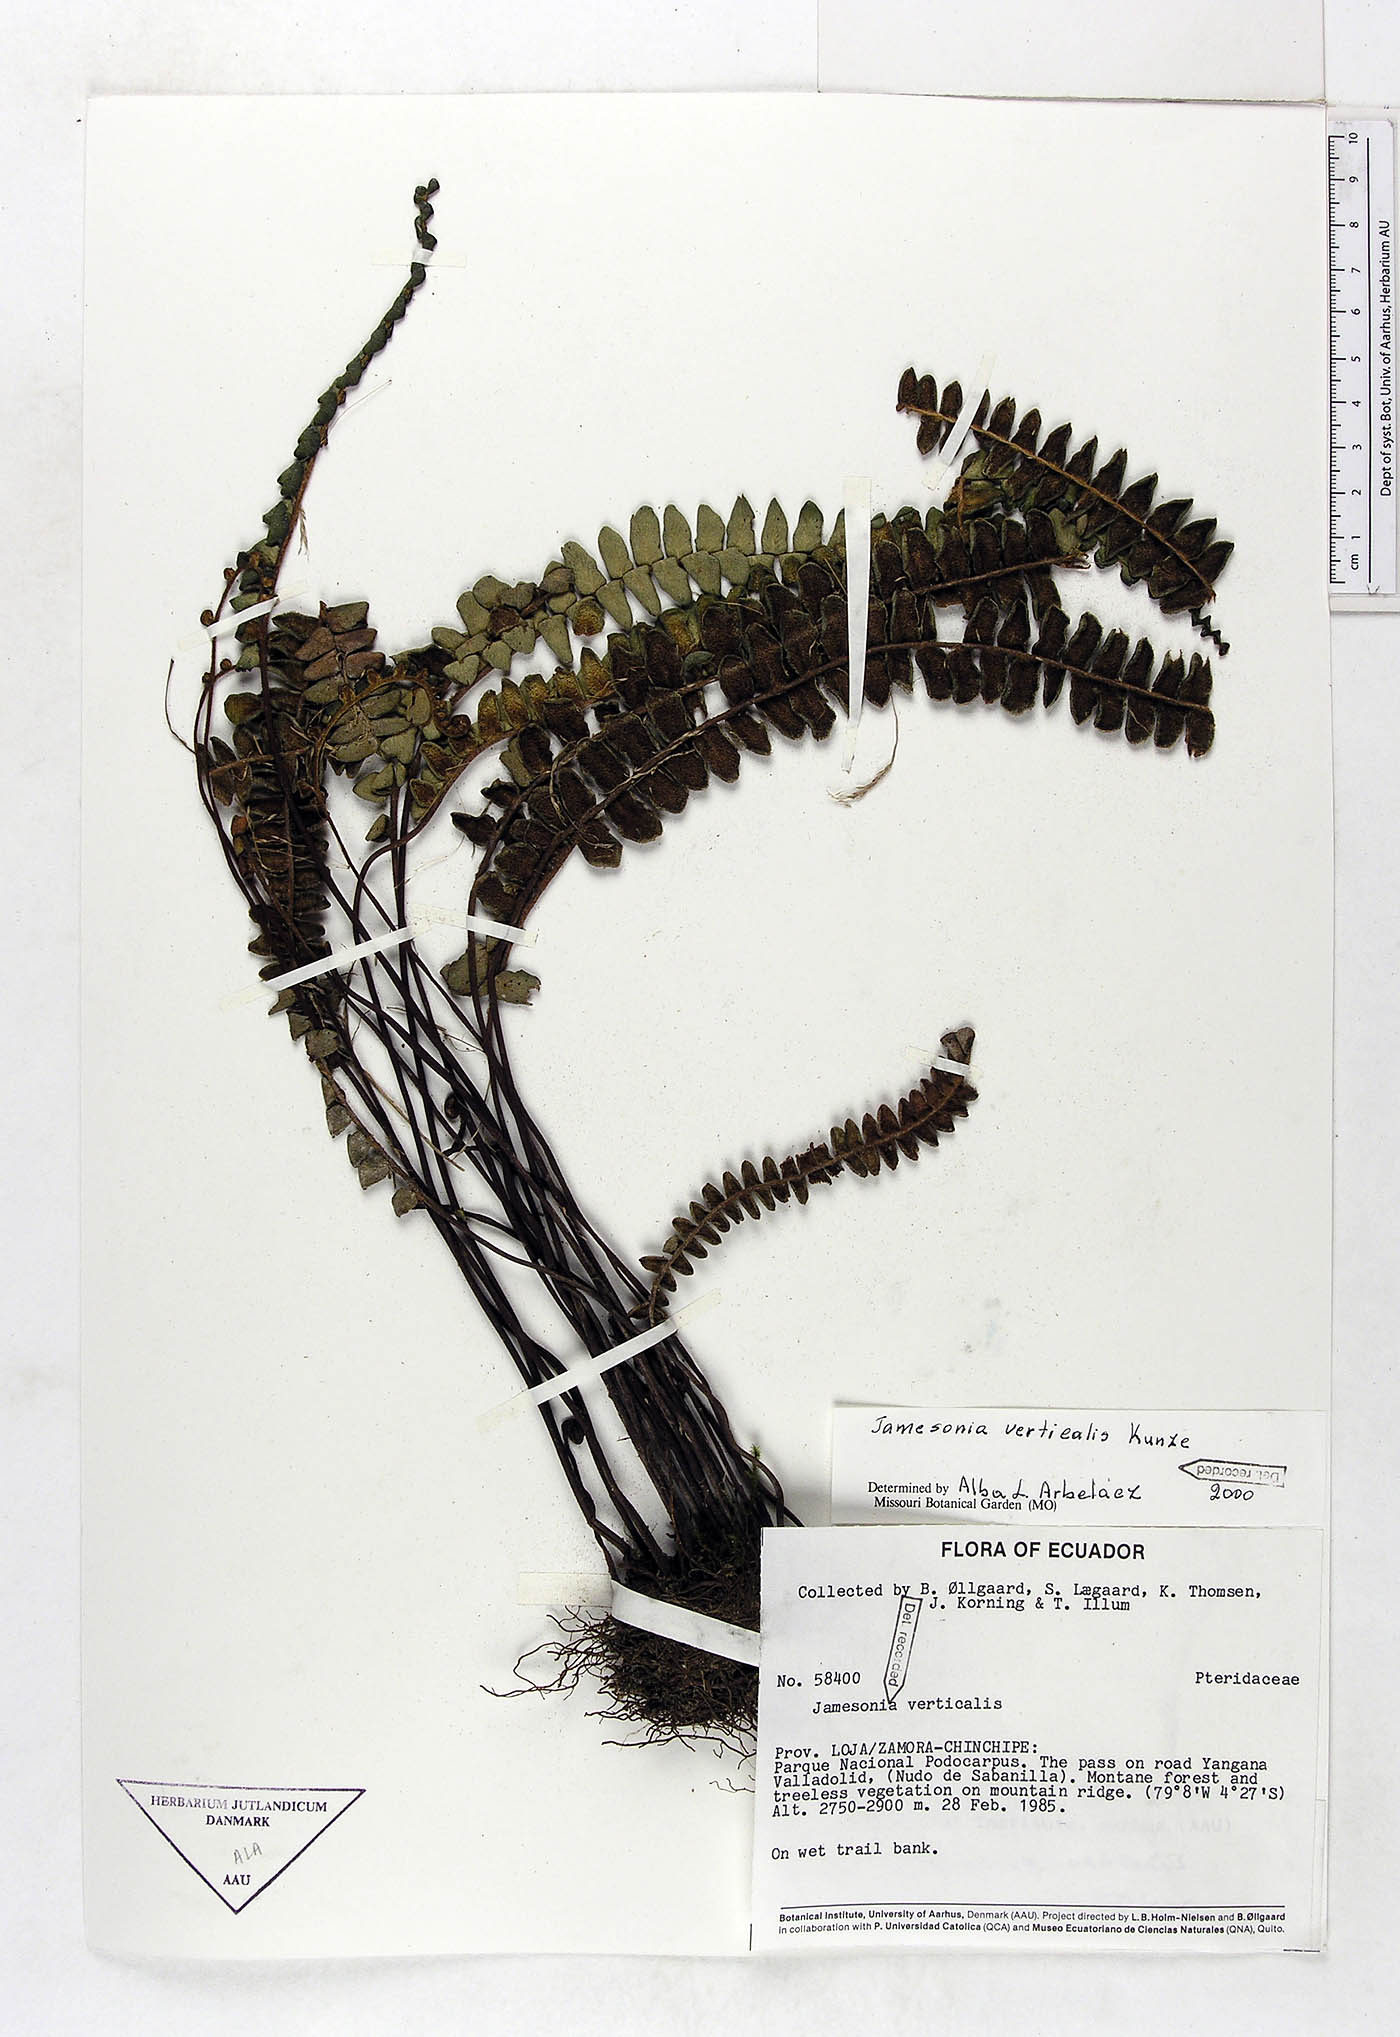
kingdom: Plantae
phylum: Tracheophyta
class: Polypodiopsida
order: Polypodiales
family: Pteridaceae
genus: Jamesonia
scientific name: Jamesonia verticalis
